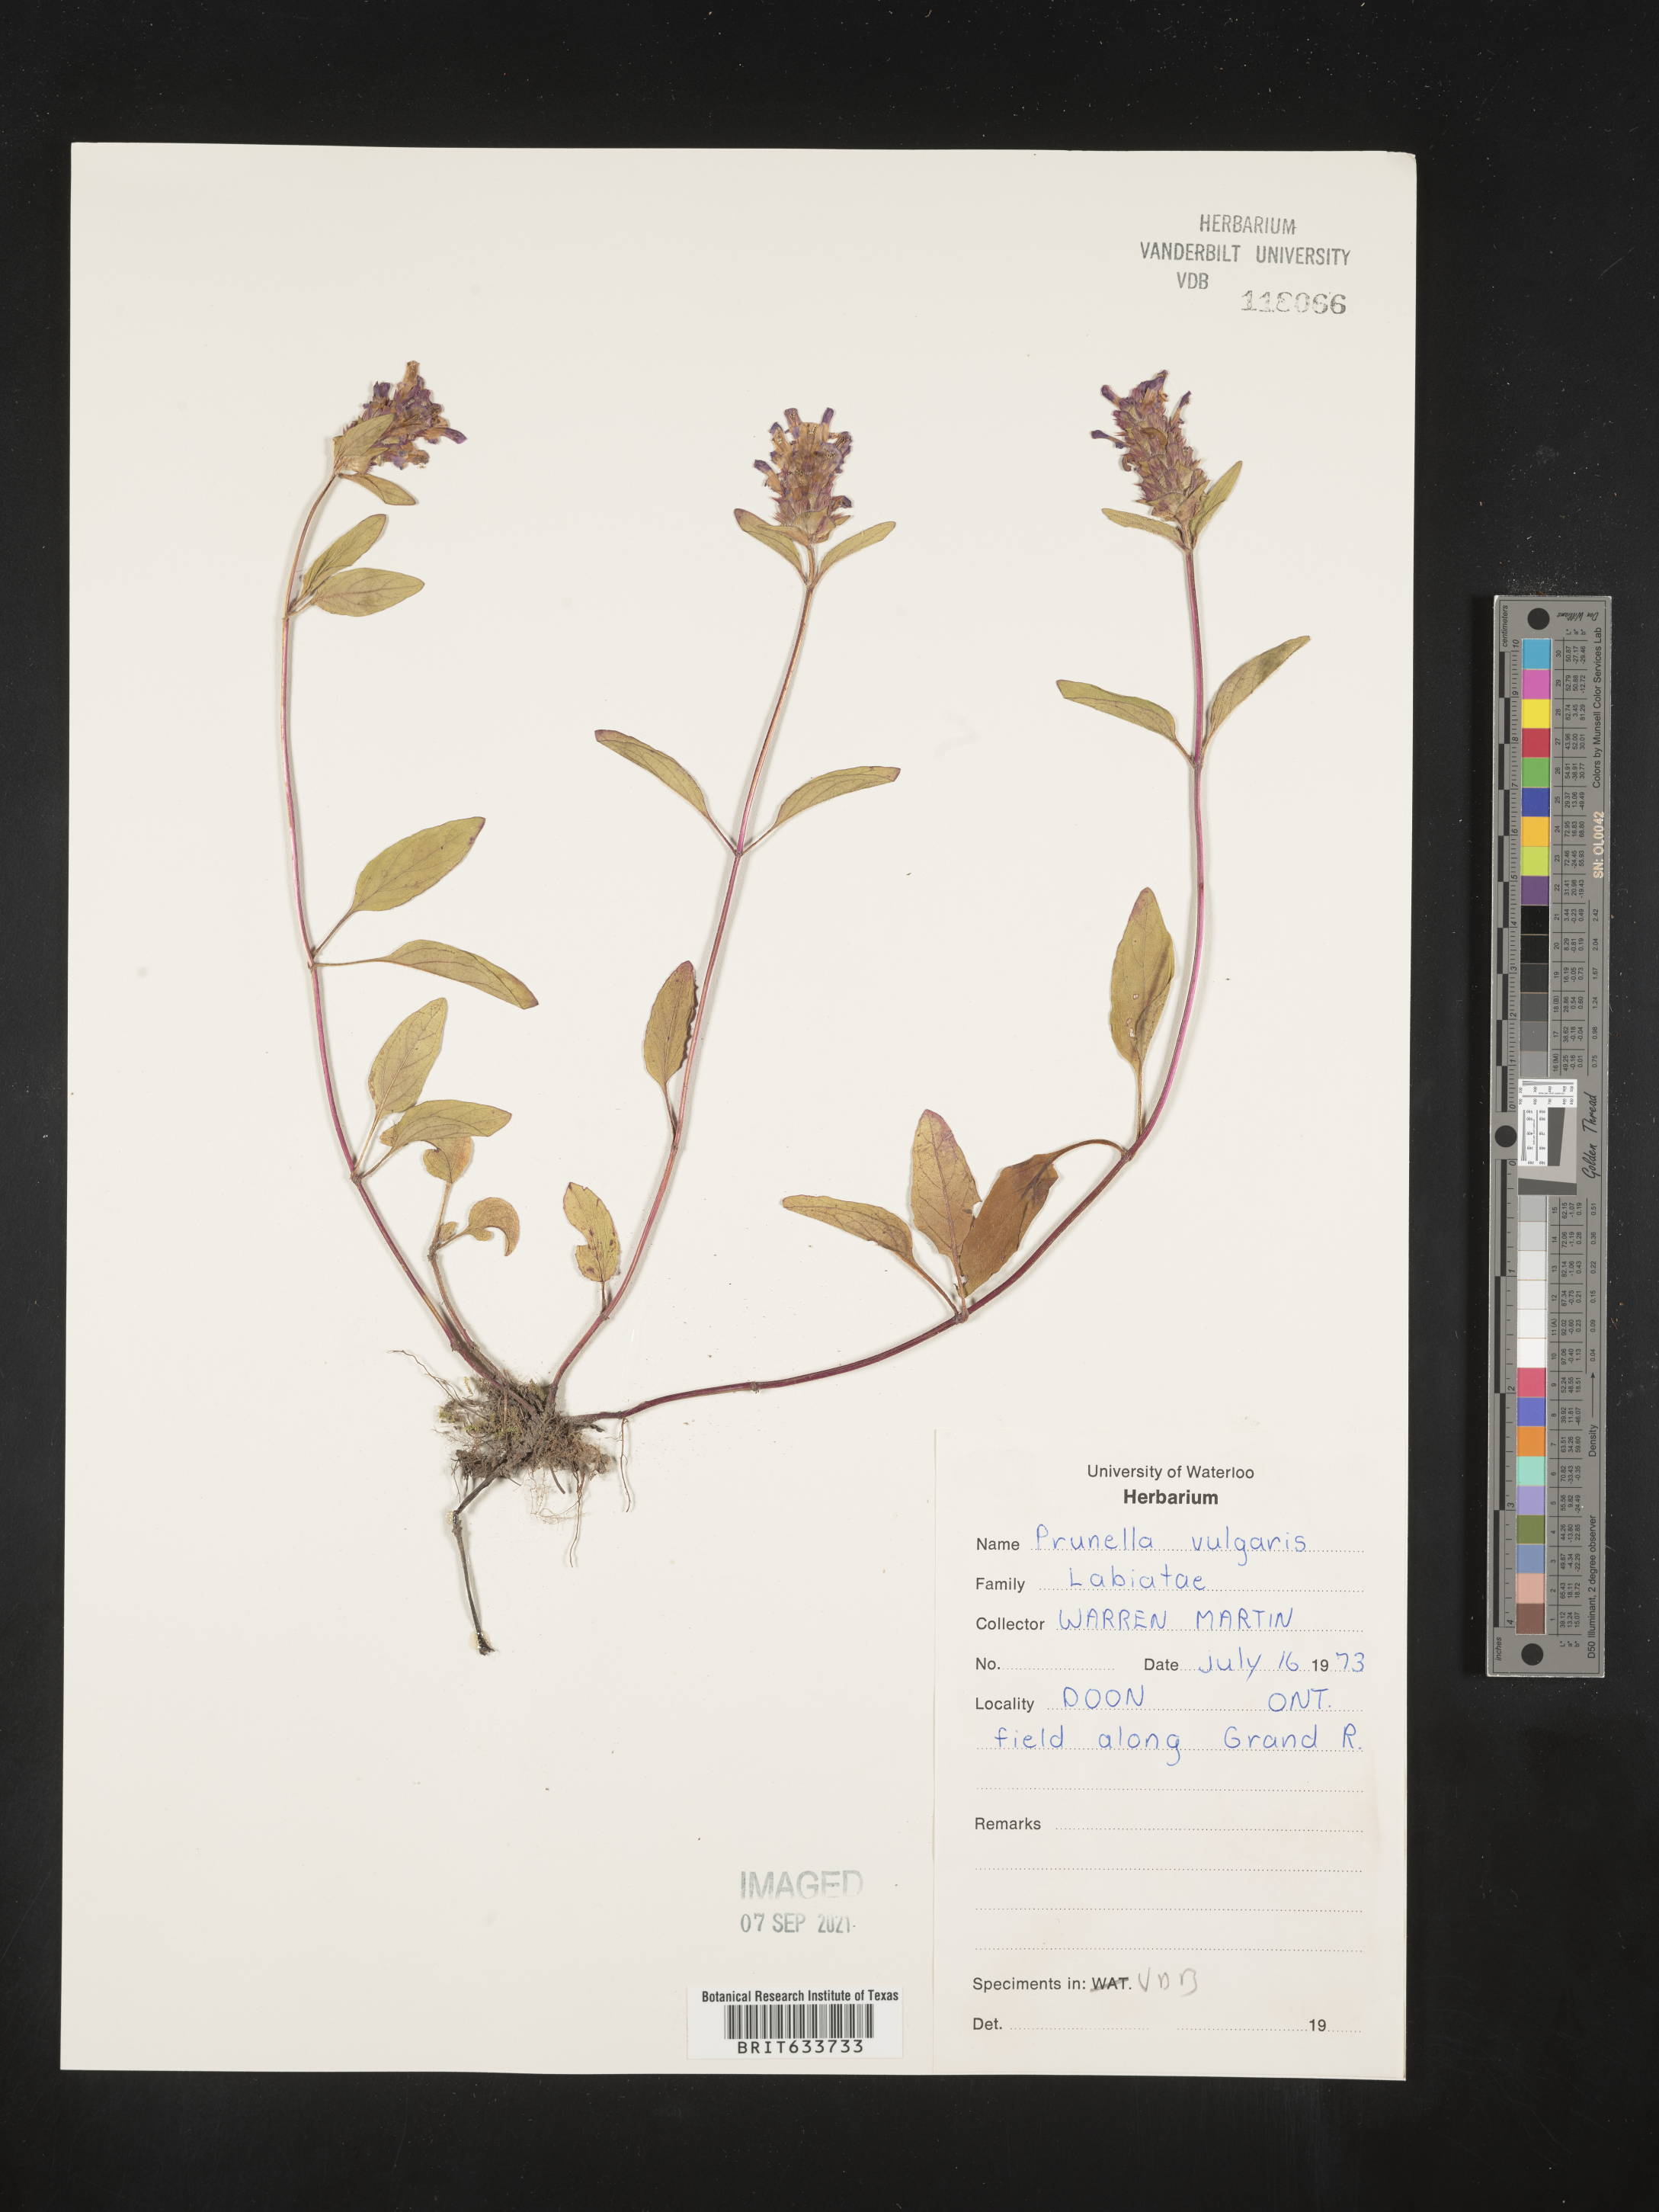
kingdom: Plantae
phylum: Tracheophyta
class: Magnoliopsida
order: Lamiales
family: Lamiaceae
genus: Prunella
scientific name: Prunella
